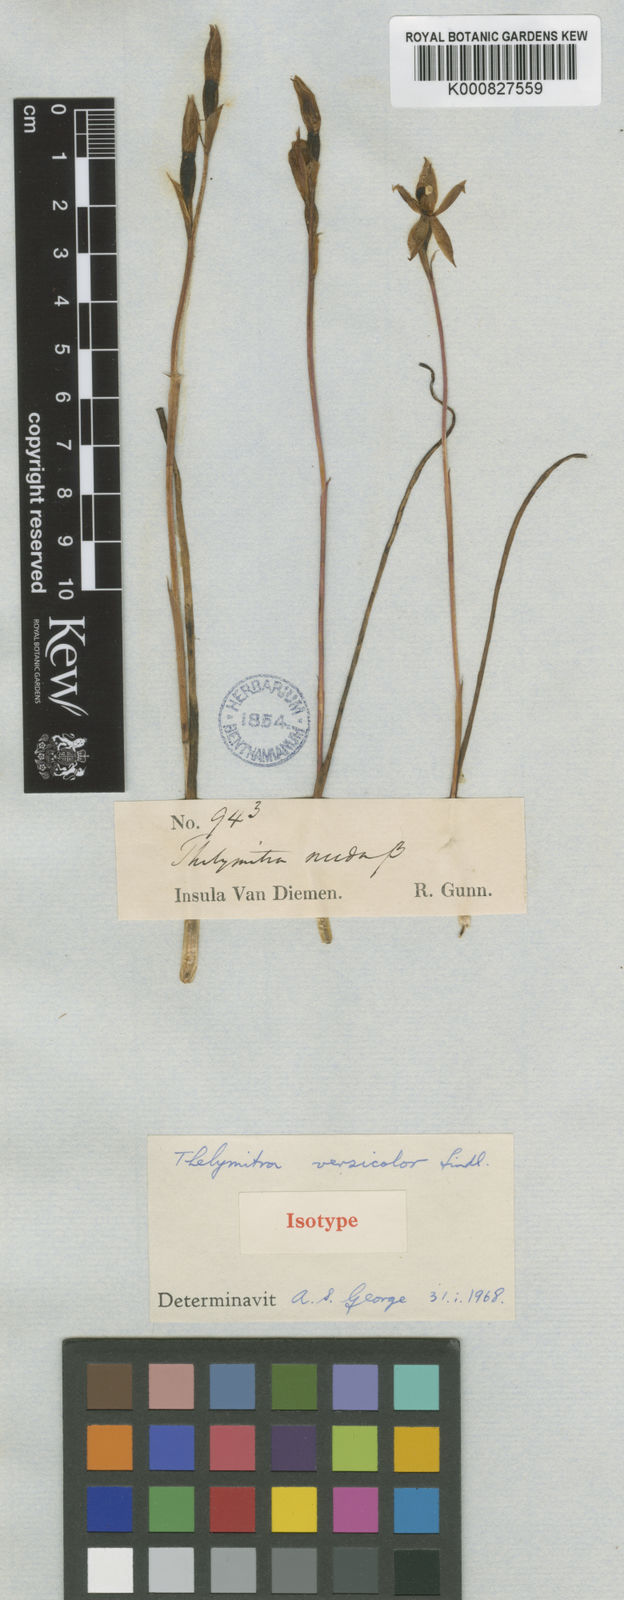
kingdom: Plantae
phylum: Tracheophyta
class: Liliopsida
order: Asparagales
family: Orchidaceae
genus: Thelymitra
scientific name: Thelymitra nuda
